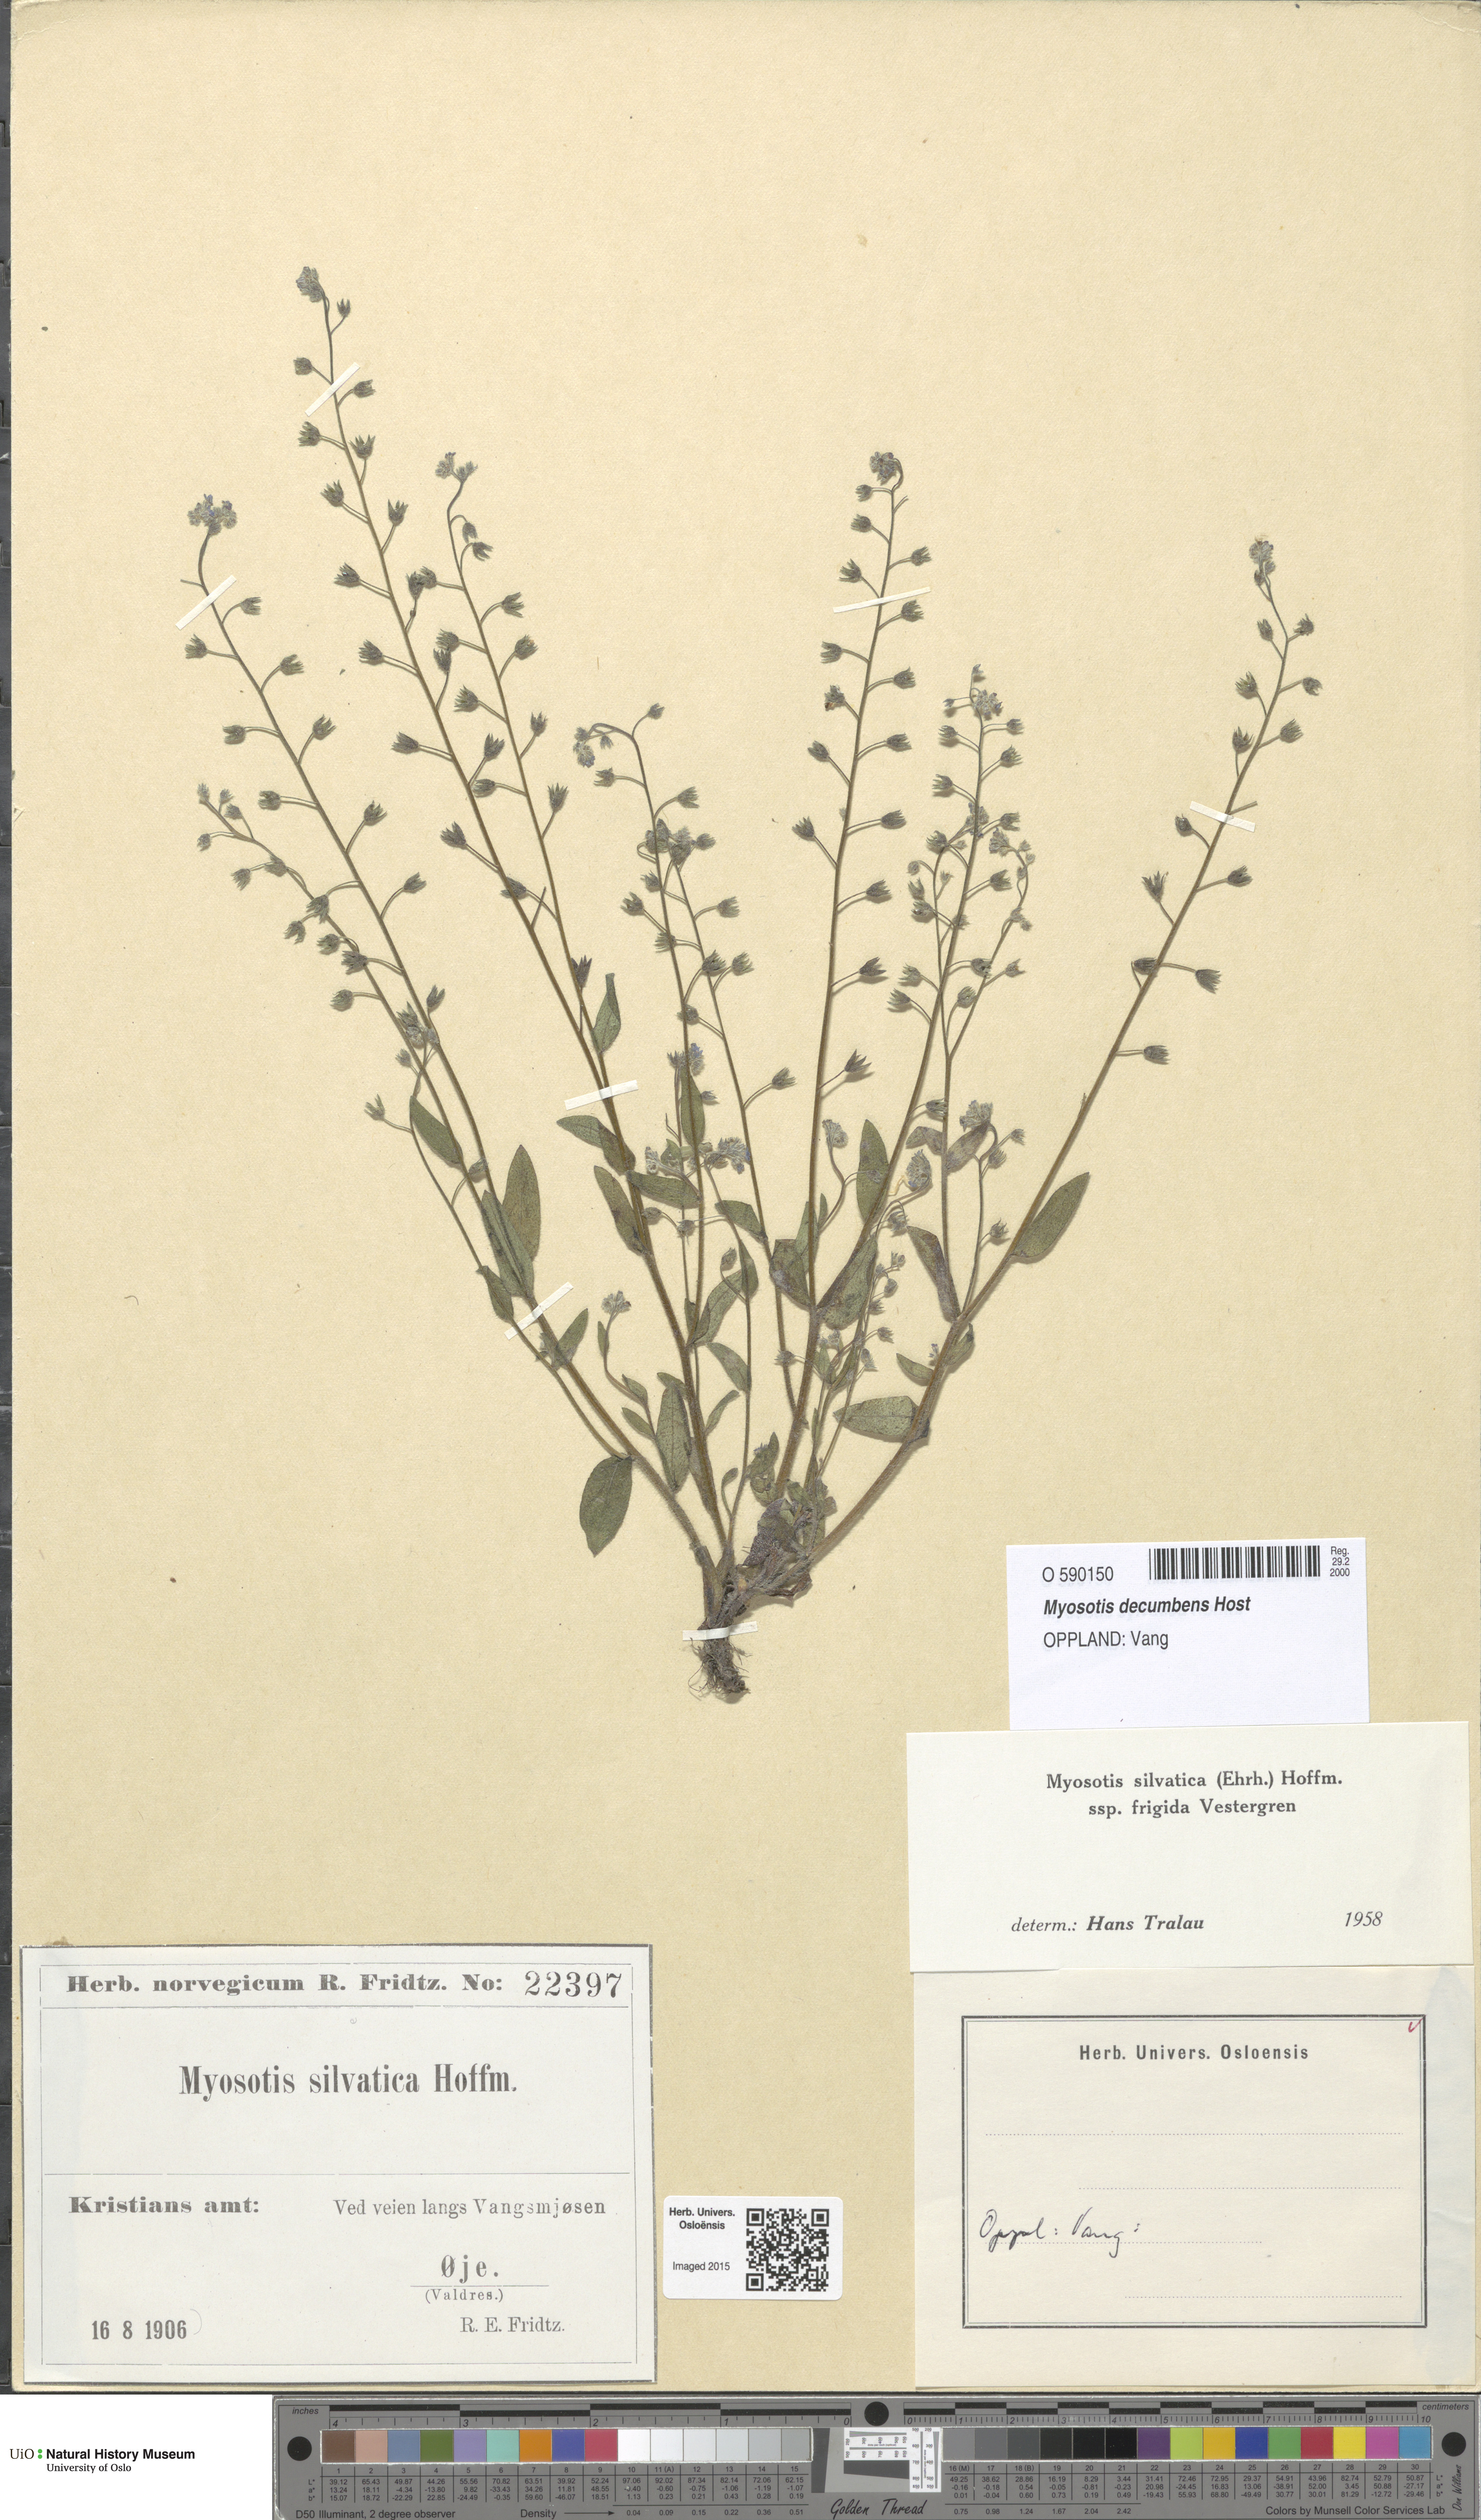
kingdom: Plantae
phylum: Tracheophyta
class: Magnoliopsida
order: Boraginales
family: Boraginaceae
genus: Myosotis
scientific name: Myosotis decumbens
